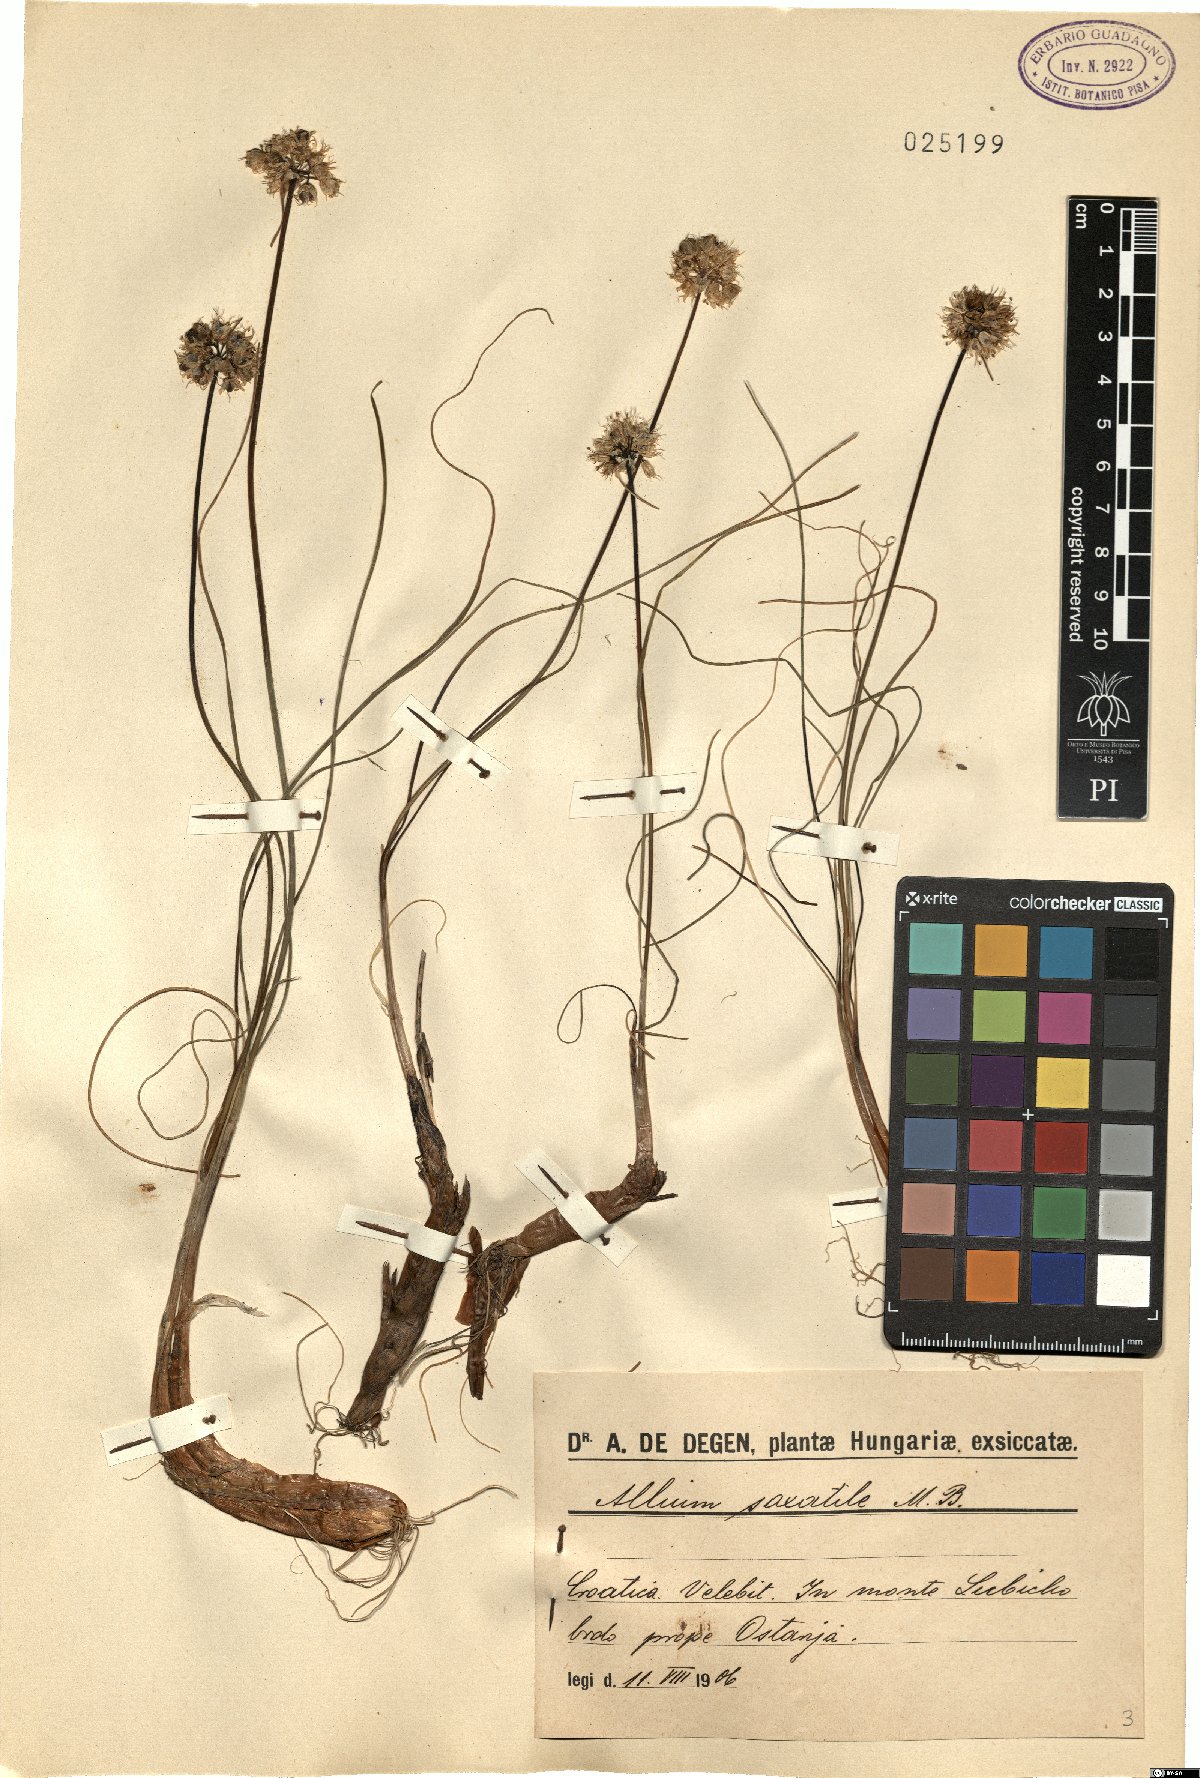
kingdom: Plantae
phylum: Tracheophyta
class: Liliopsida
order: Asparagales
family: Amaryllidaceae
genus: Allium
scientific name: Allium saxatile
